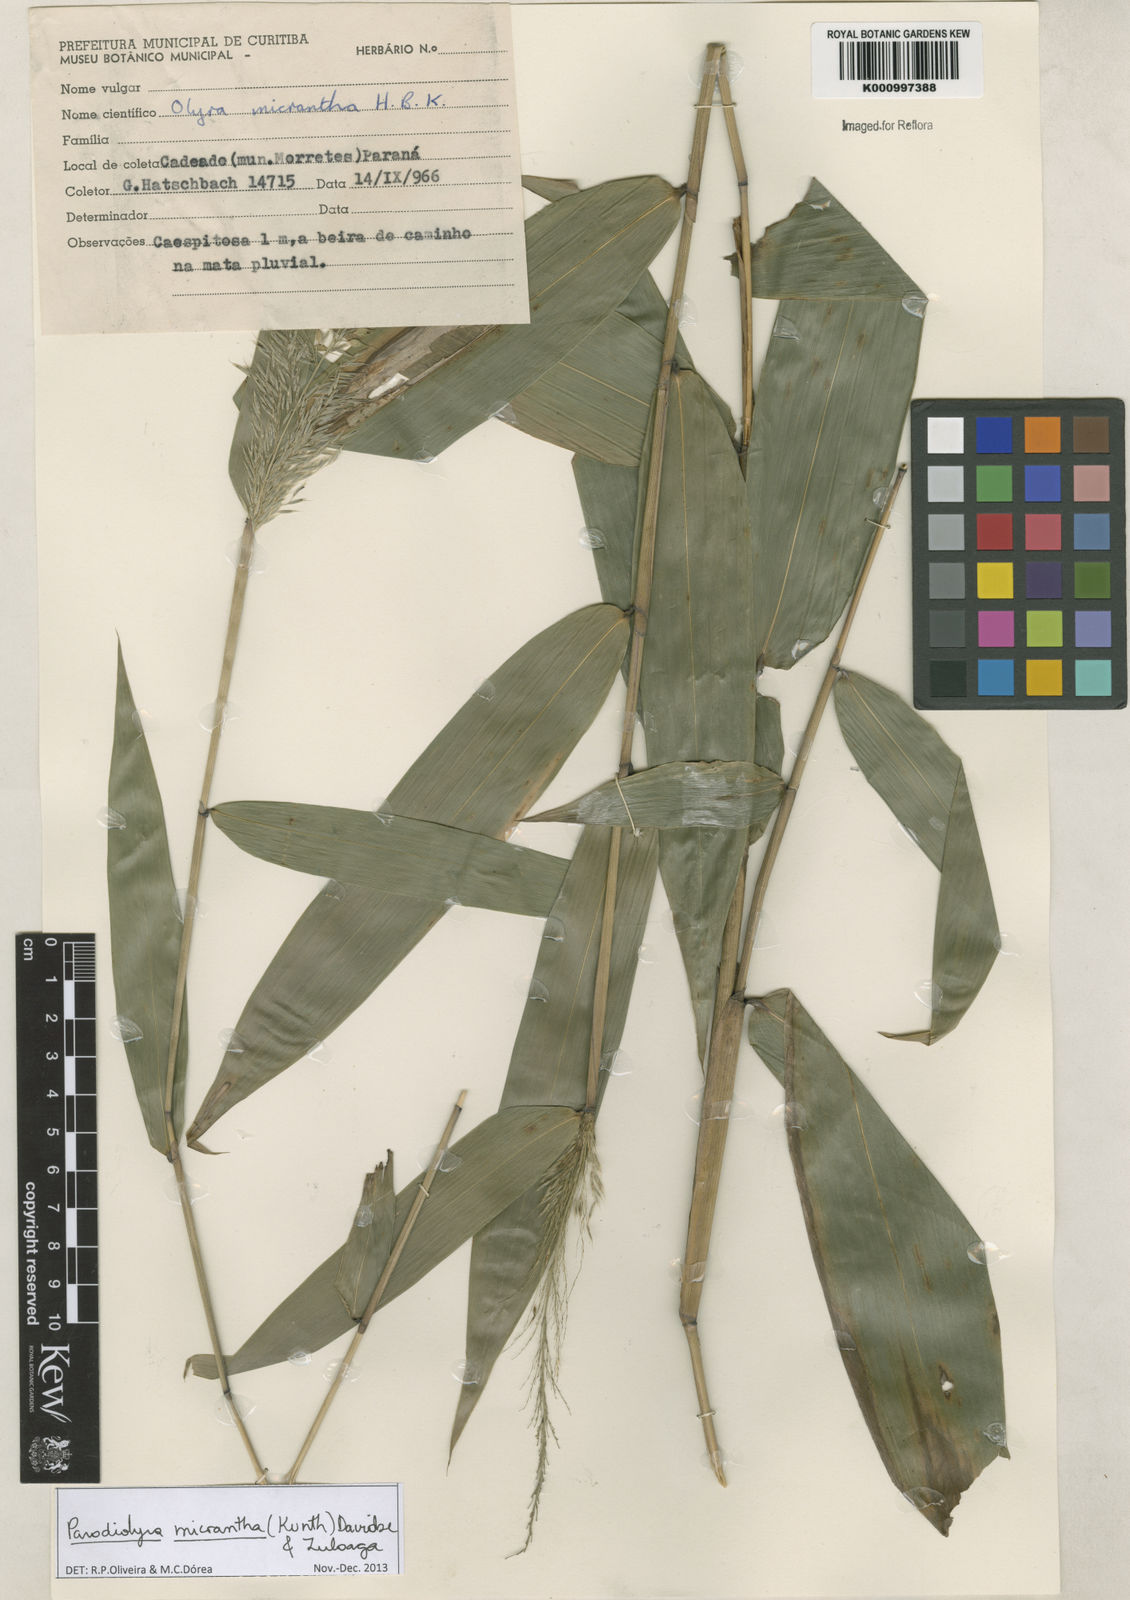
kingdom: Plantae
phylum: Tracheophyta
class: Liliopsida
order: Poales
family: Poaceae
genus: Taquara
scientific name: Taquara micrantha
